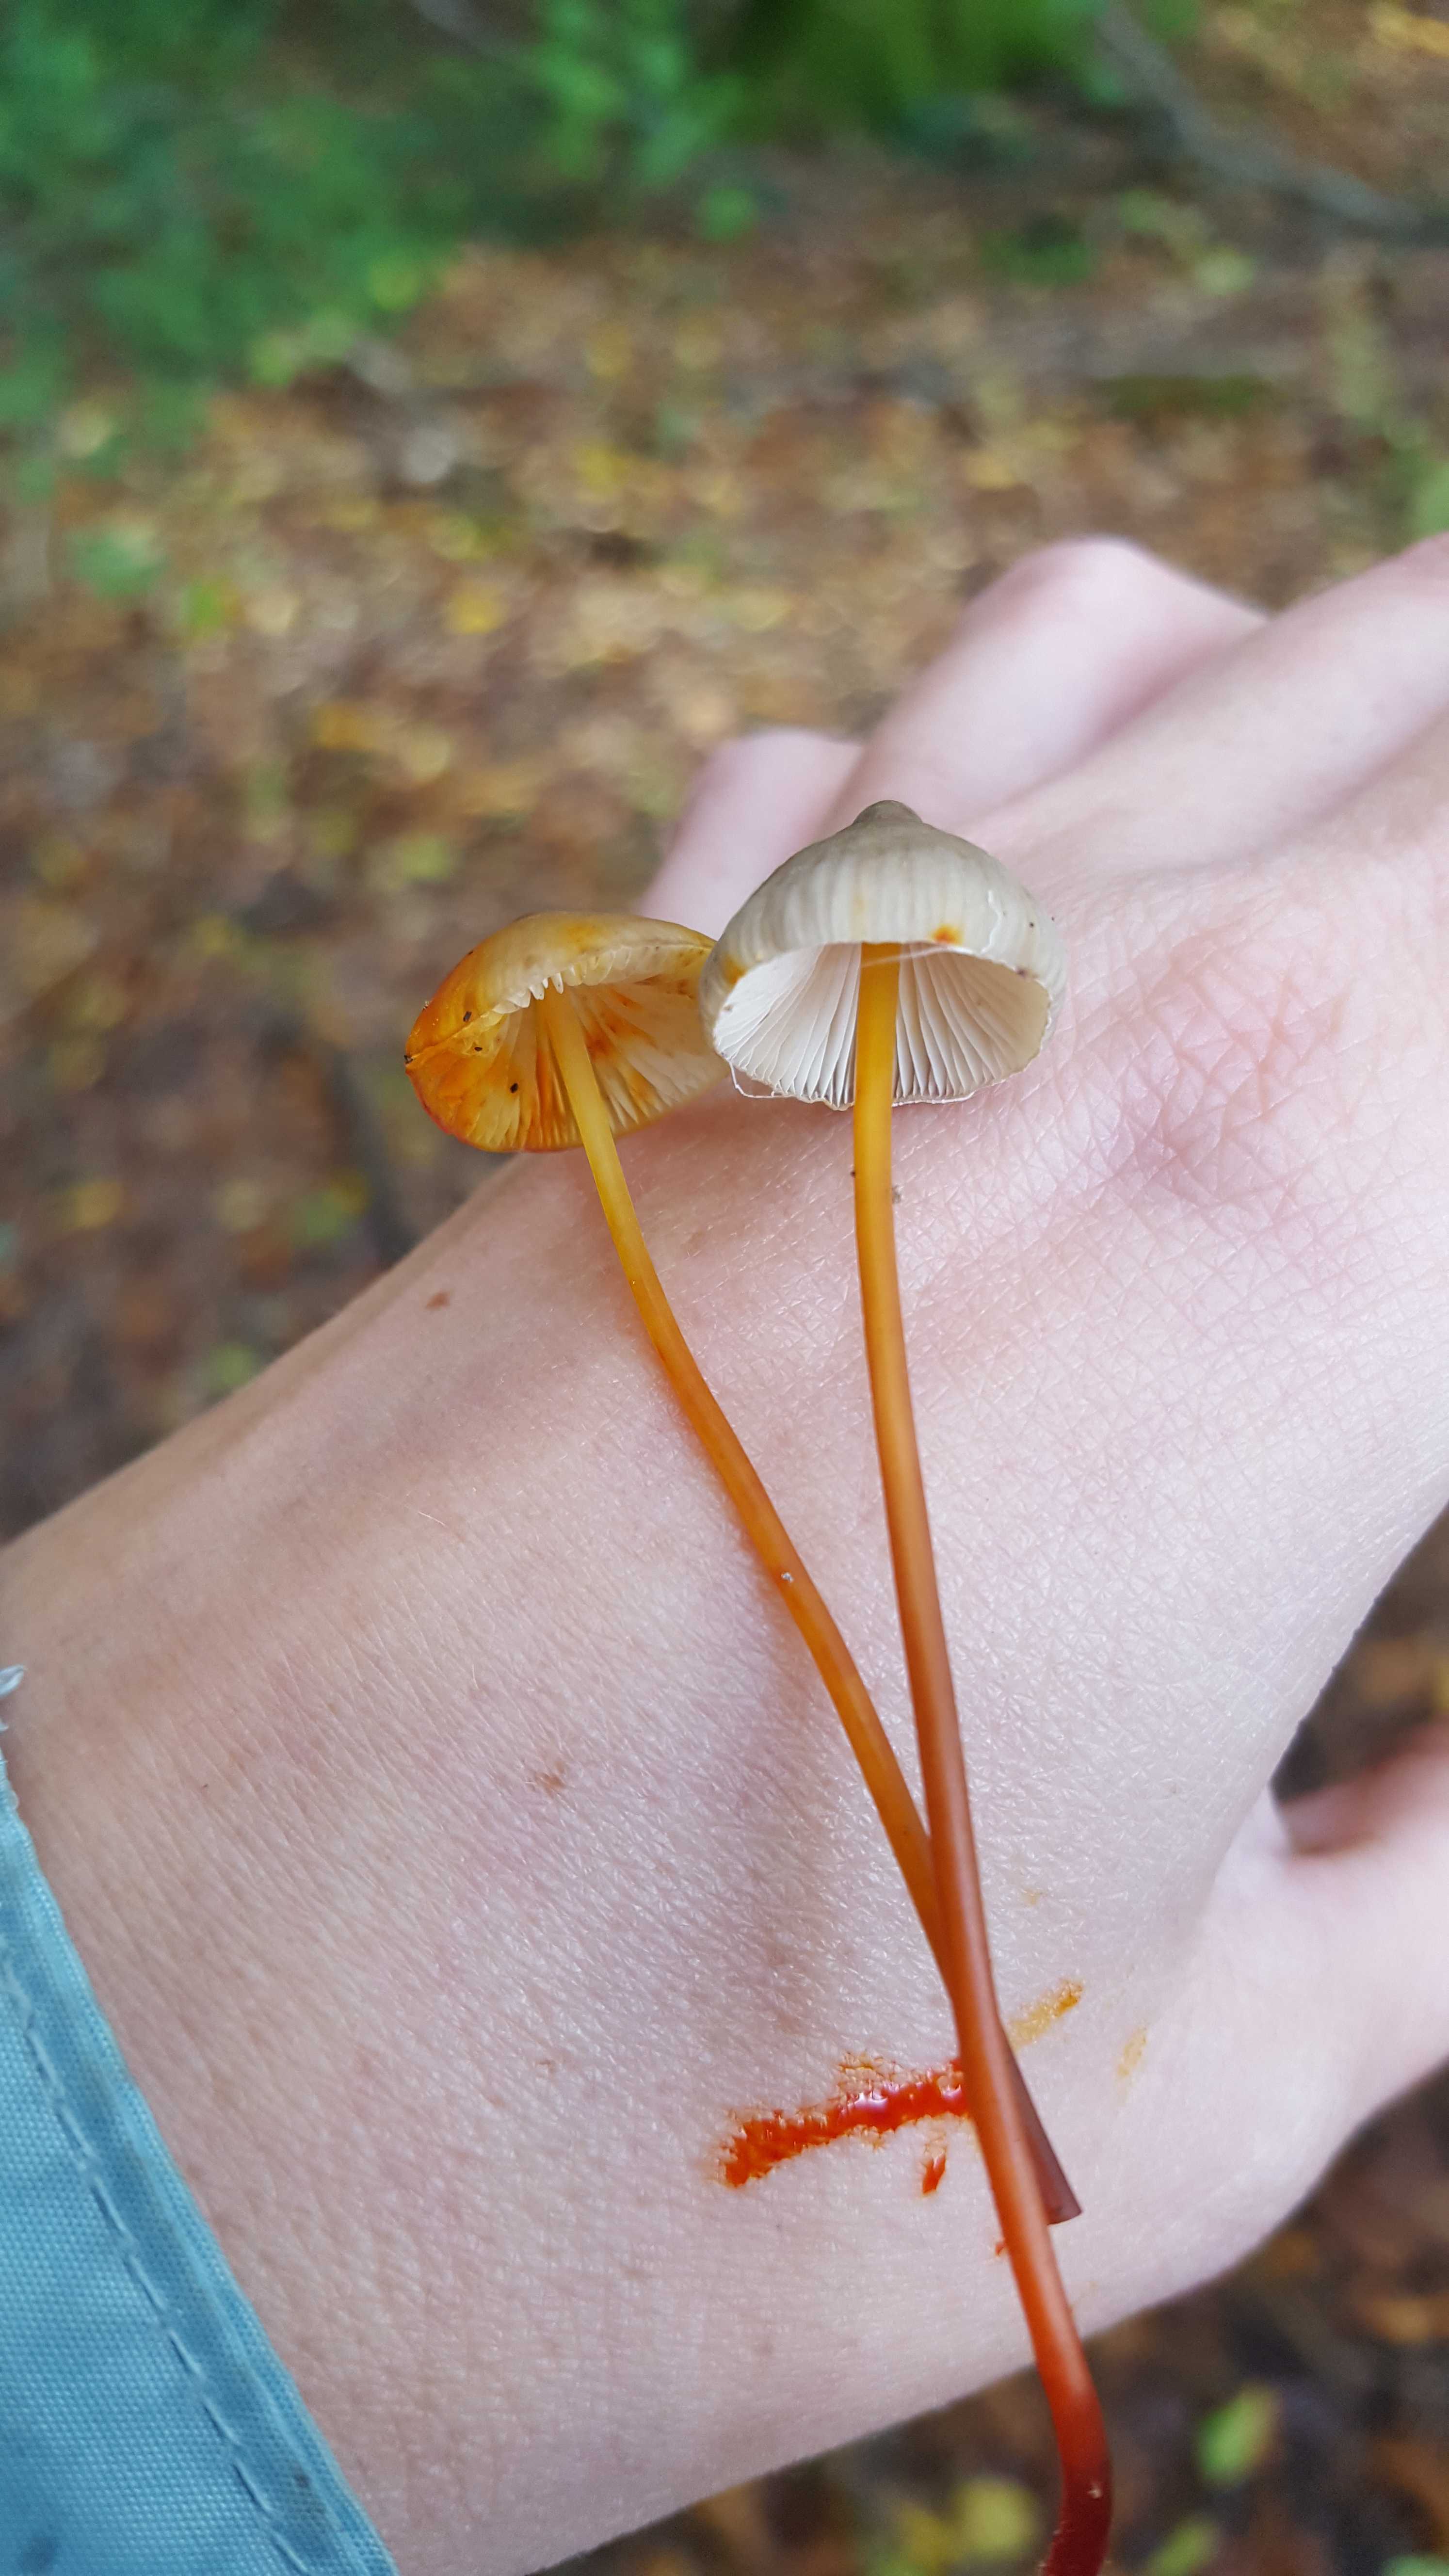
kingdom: Fungi
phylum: Basidiomycota
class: Agaricomycetes
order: Agaricales
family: Mycenaceae
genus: Mycena
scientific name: Mycena crocata
